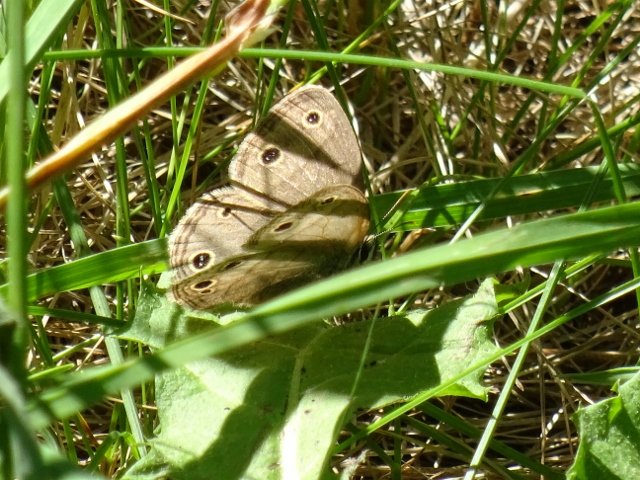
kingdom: Animalia
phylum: Arthropoda
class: Insecta
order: Lepidoptera
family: Nymphalidae
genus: Euptychia
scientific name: Euptychia cymela
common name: Little Wood Satyr
